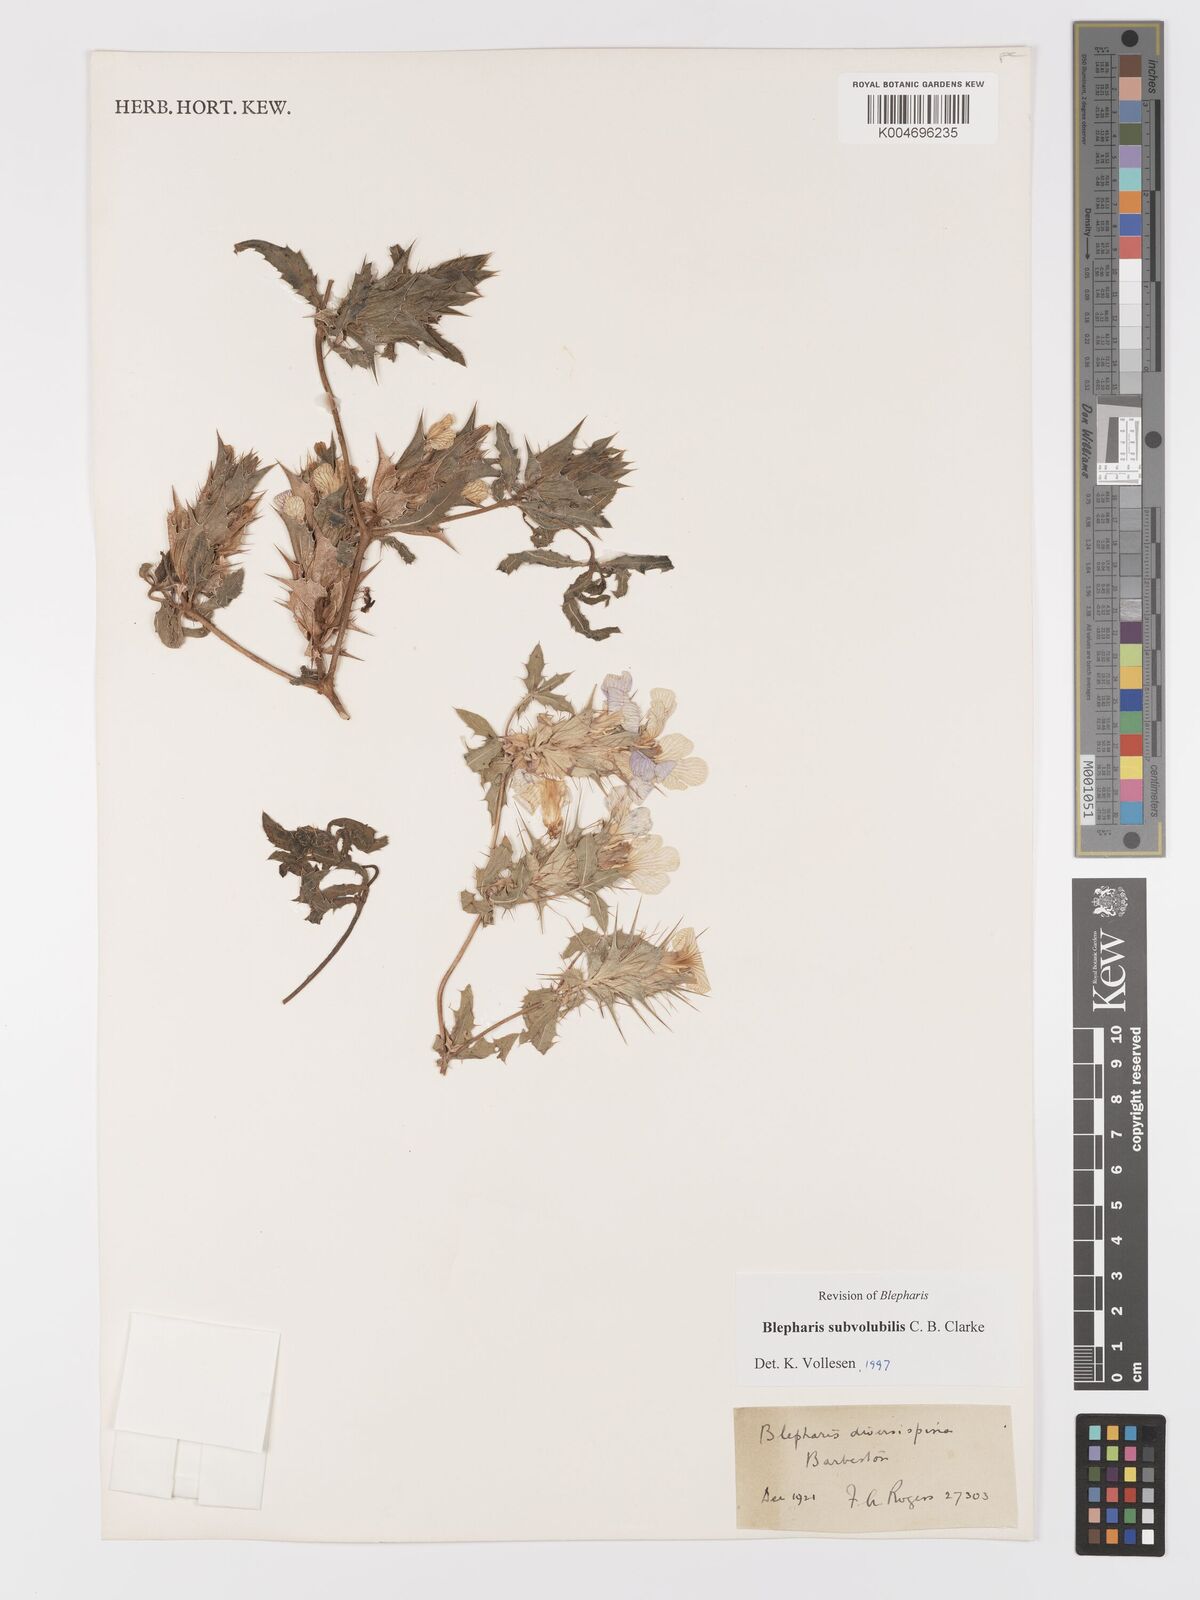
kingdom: Plantae
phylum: Tracheophyta
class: Magnoliopsida
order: Lamiales
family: Acanthaceae
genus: Blepharis
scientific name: Blepharis subvolubilis
